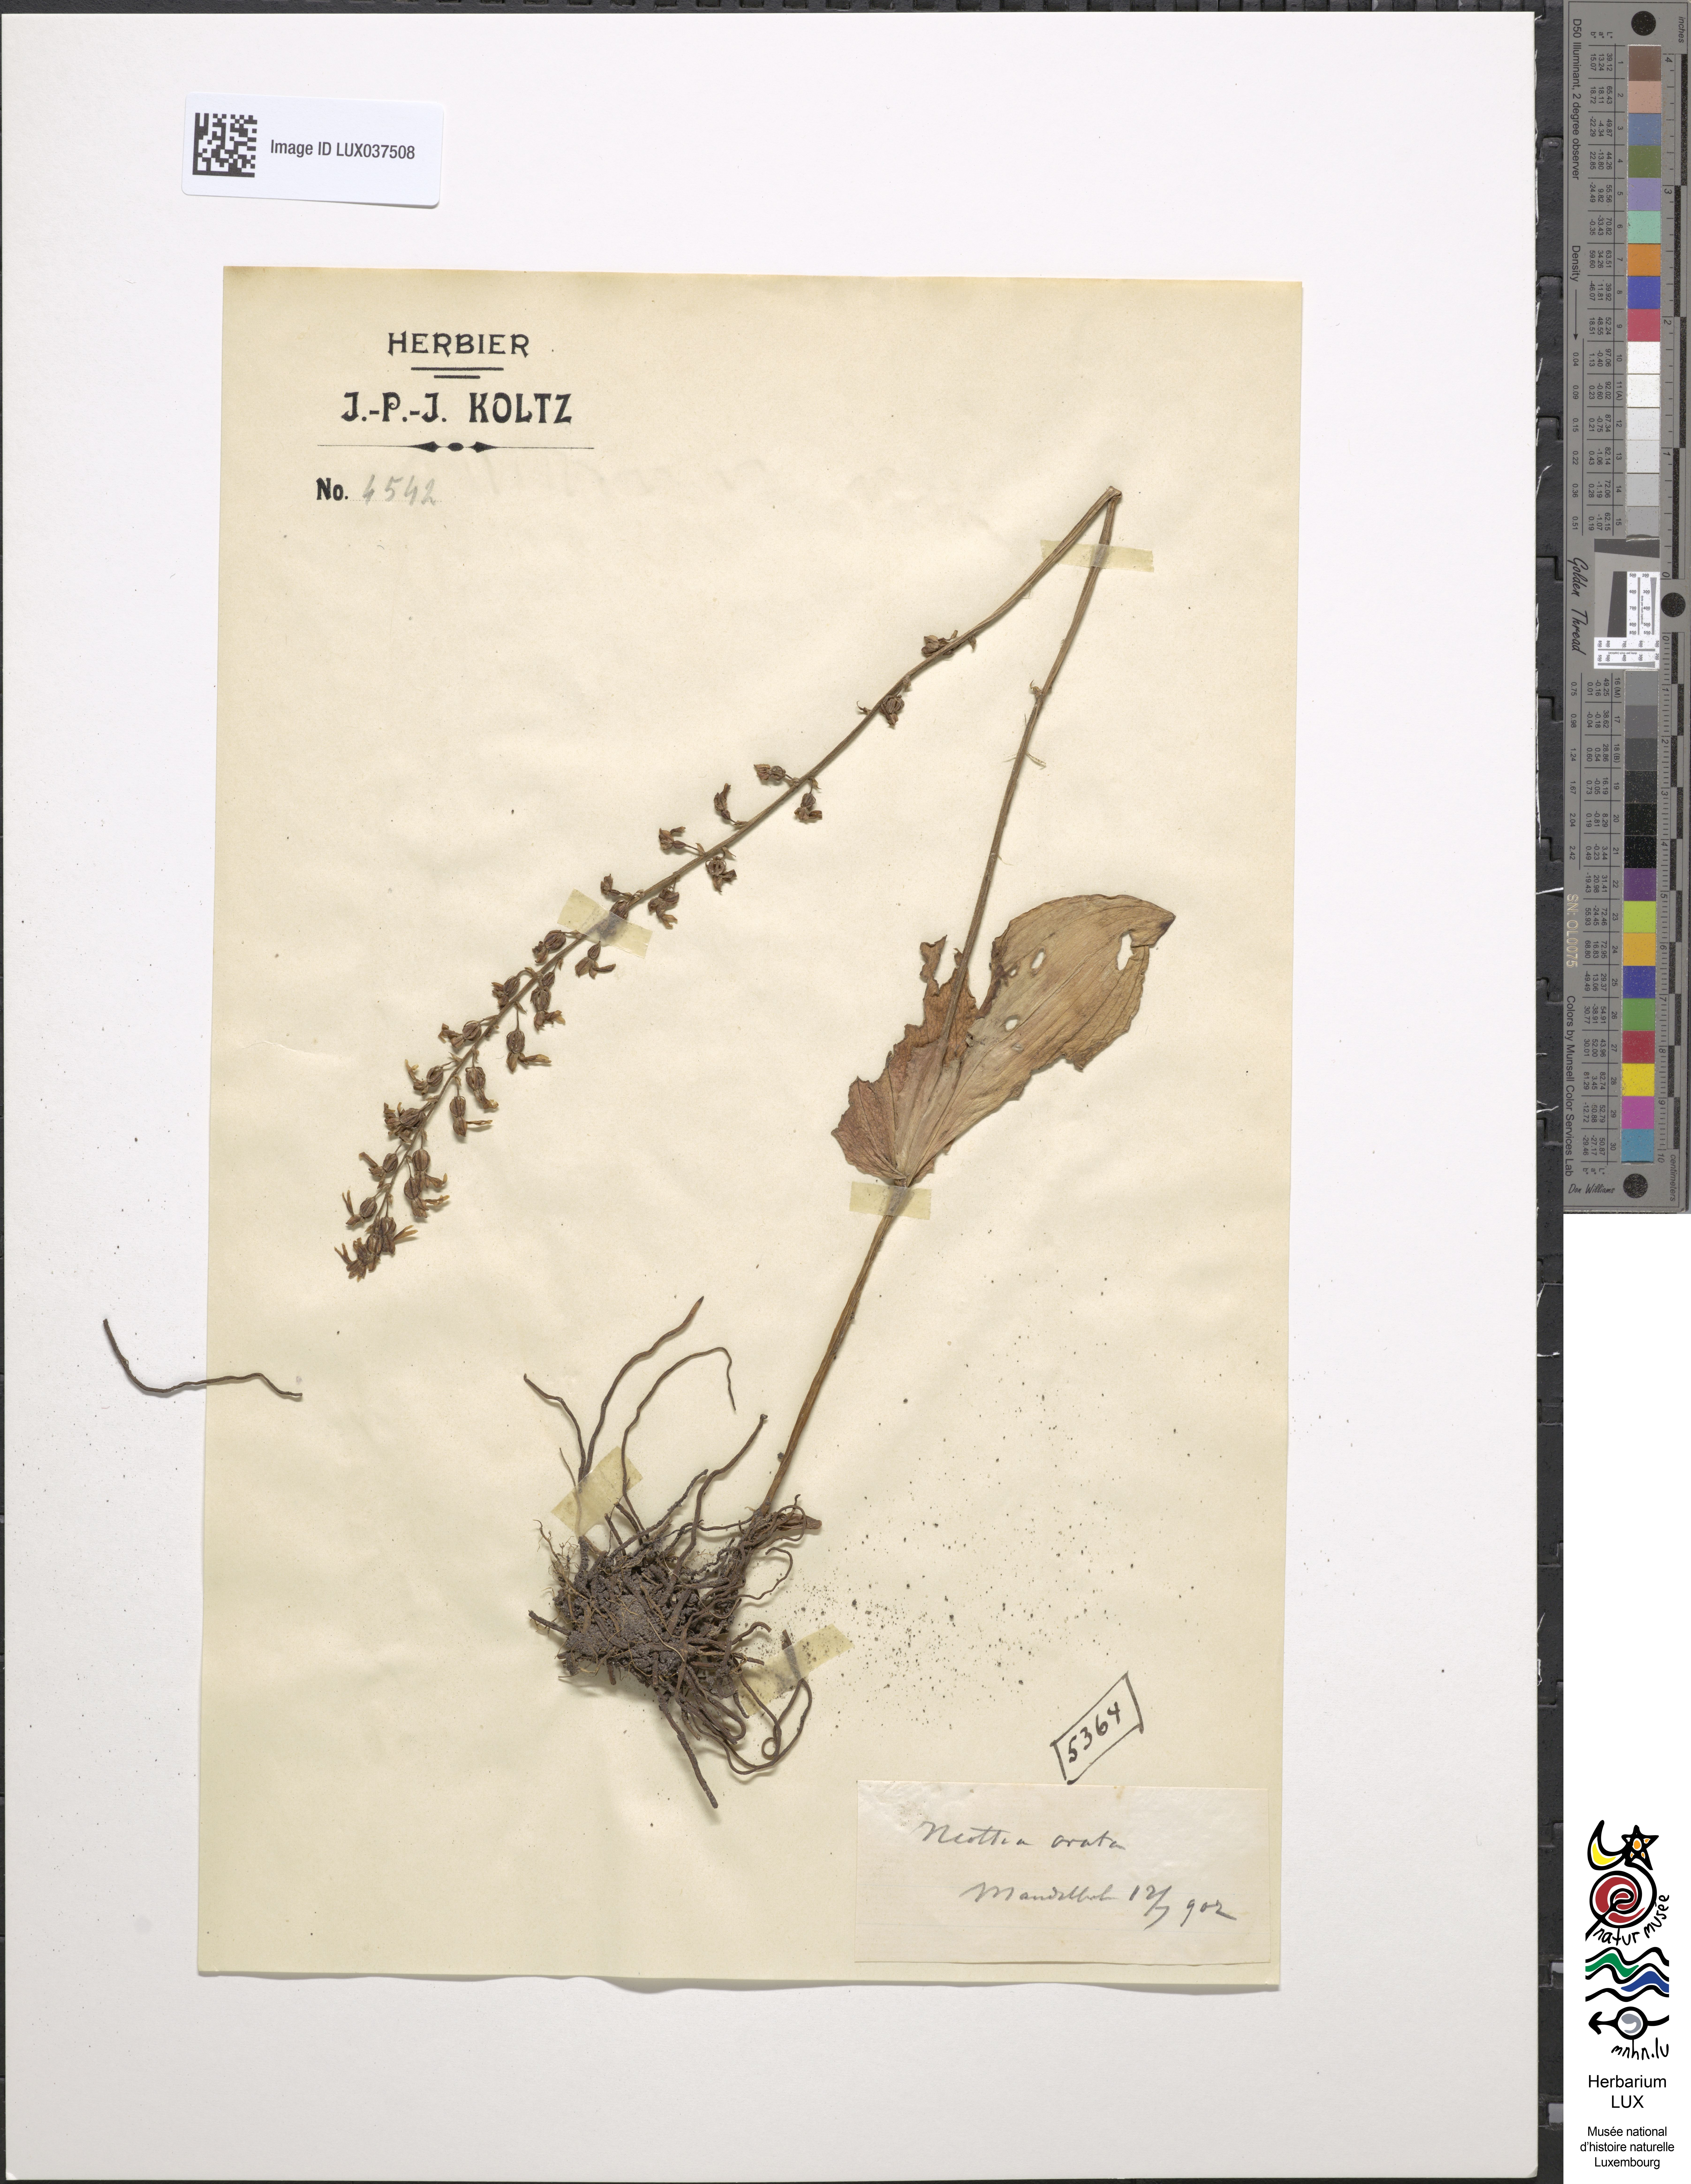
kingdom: Plantae
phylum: Tracheophyta
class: Liliopsida
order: Asparagales
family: Orchidaceae
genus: Neottia
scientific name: Neottia ovata
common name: Common twayblade
